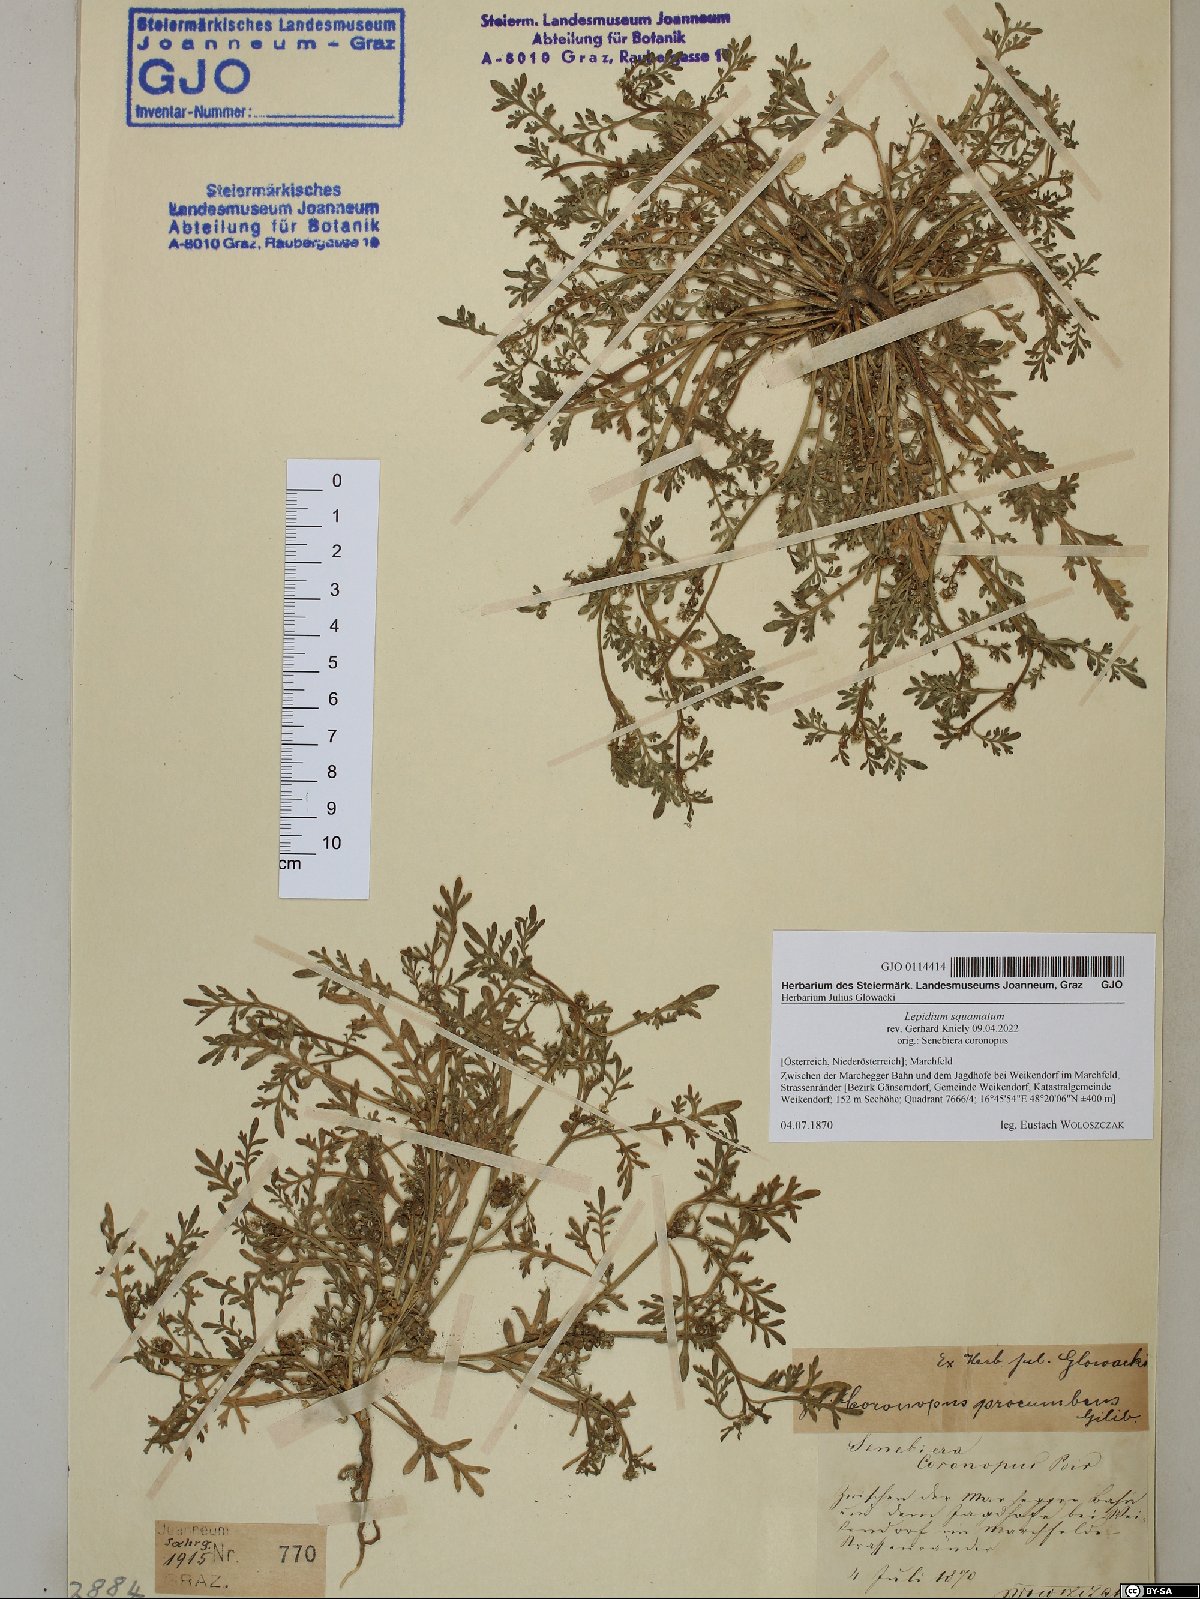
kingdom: Plantae
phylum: Tracheophyta
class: Magnoliopsida
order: Brassicales
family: Brassicaceae
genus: Lepidium
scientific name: Lepidium coronopus
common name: Greater swinecress
